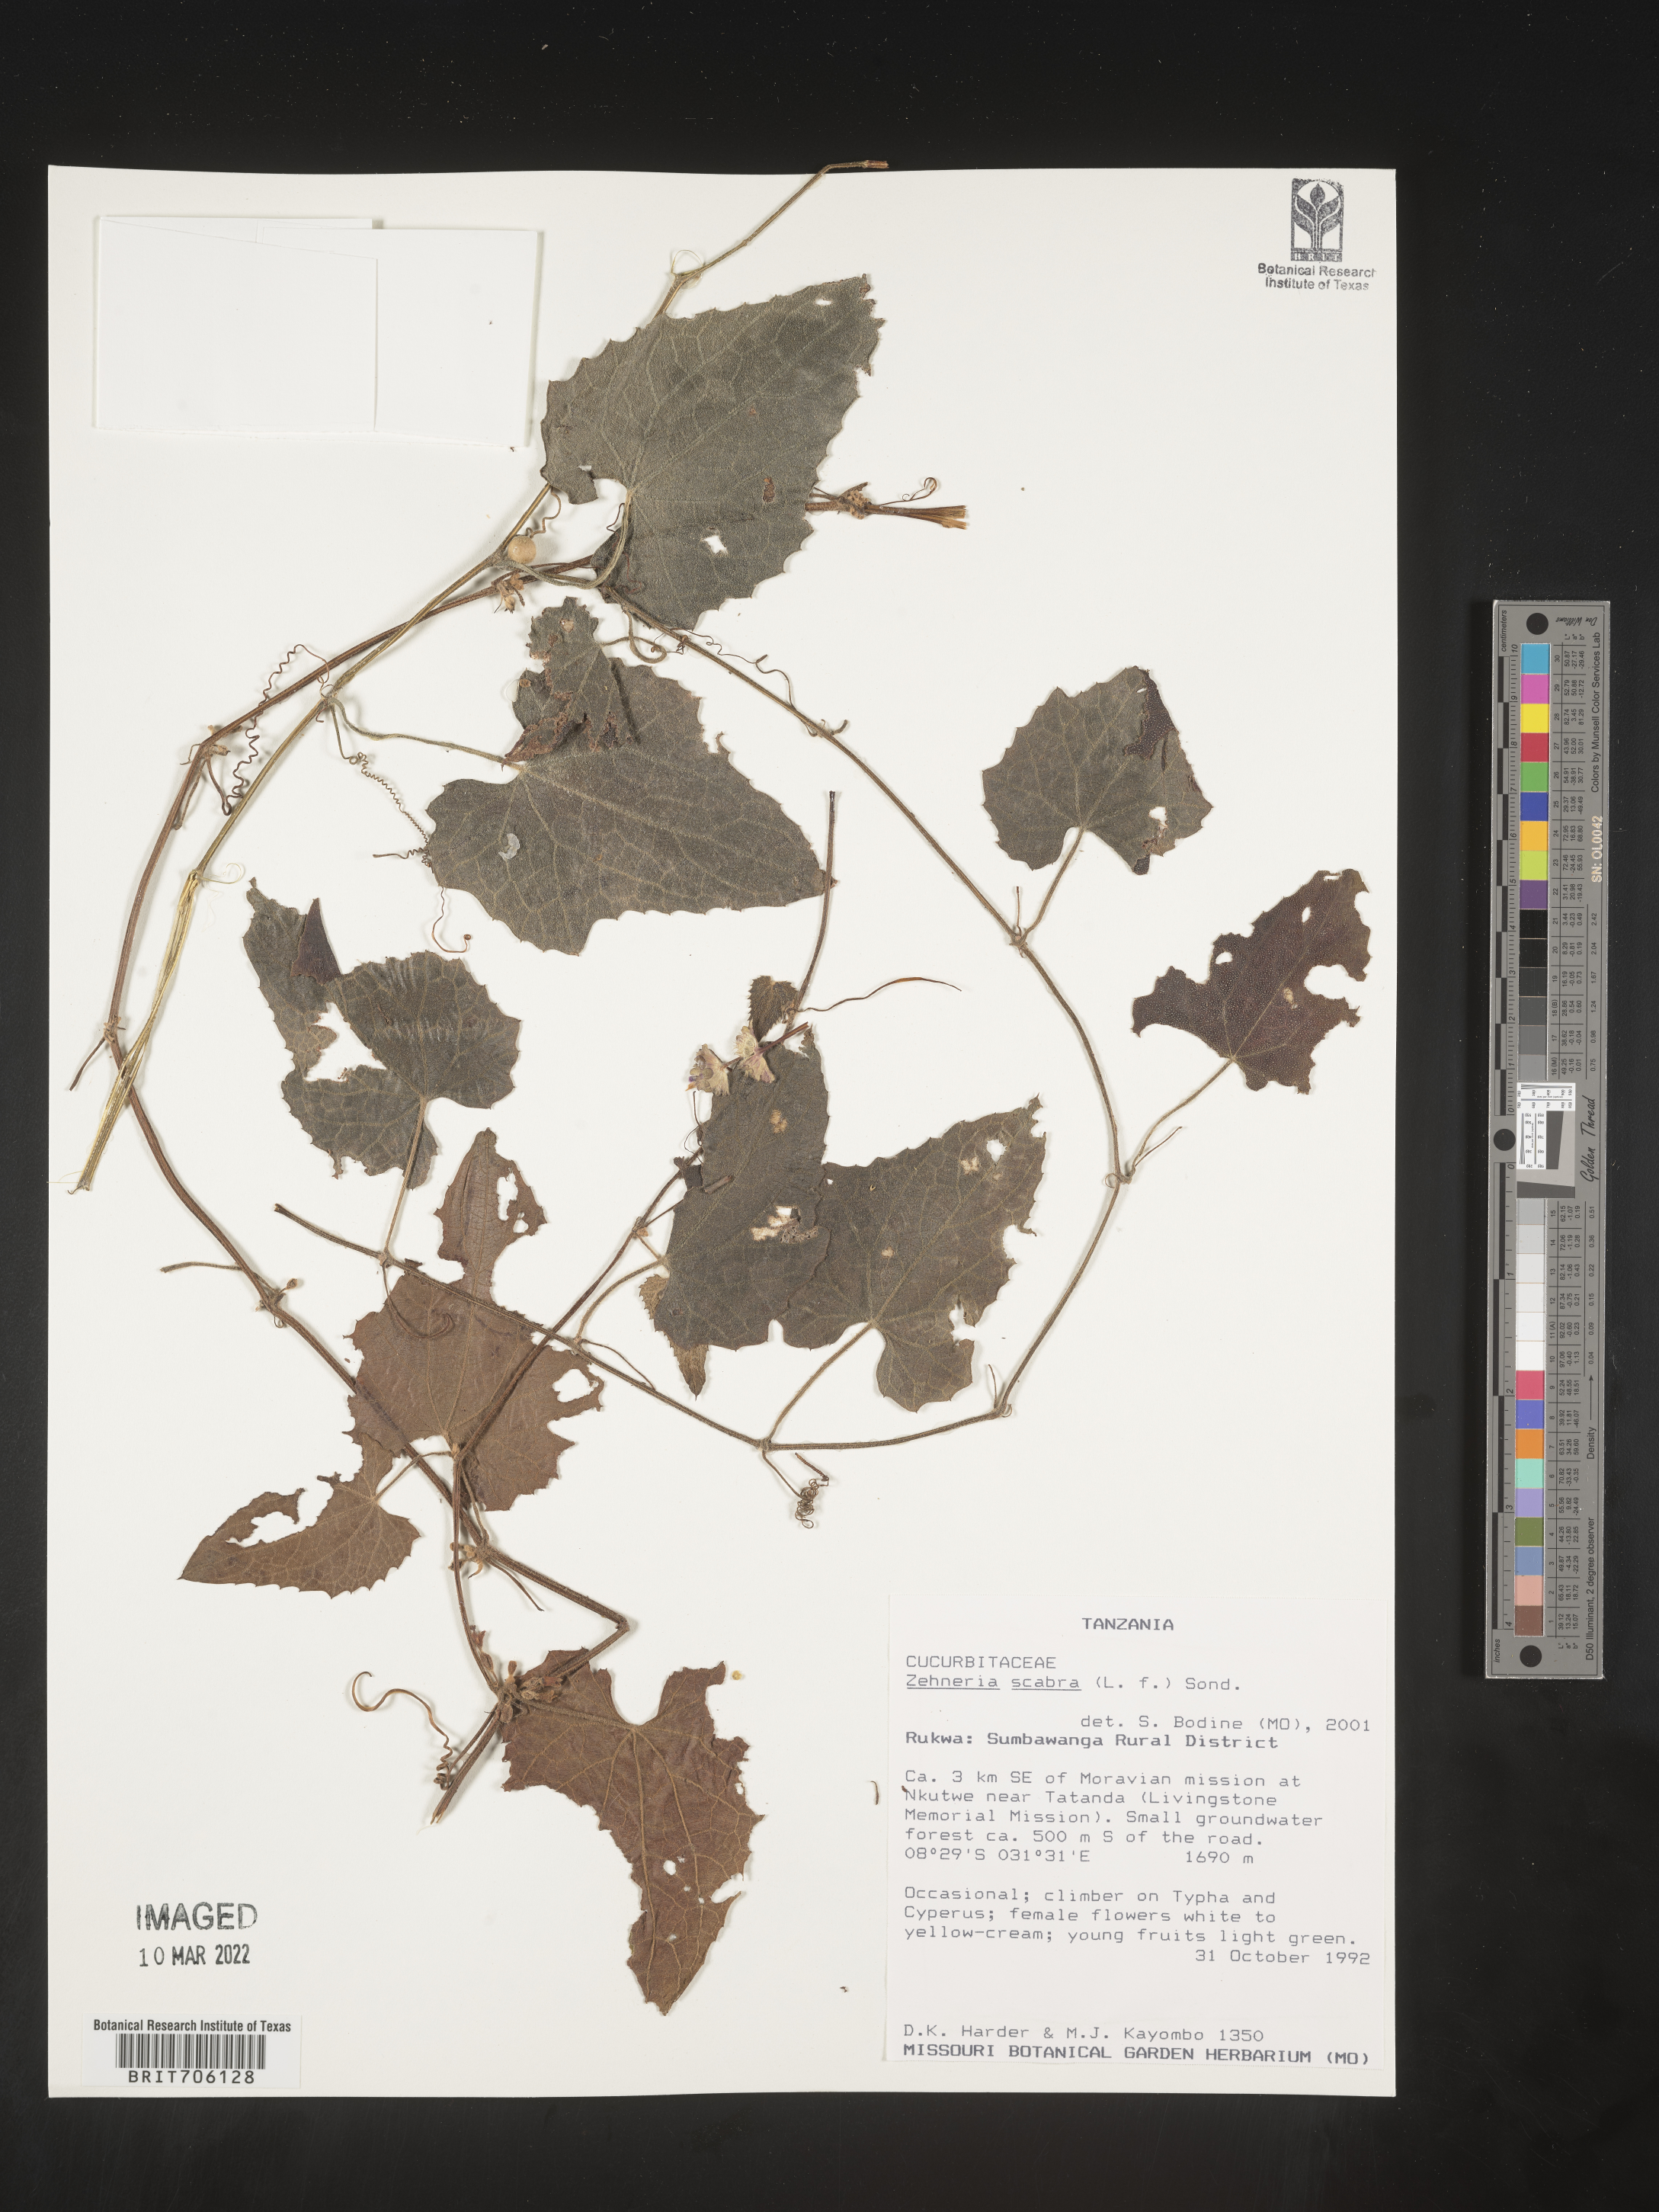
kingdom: Plantae
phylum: Tracheophyta
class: Magnoliopsida
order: Cucurbitales
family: Cucurbitaceae
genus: Zehneria
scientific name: Zehneria
